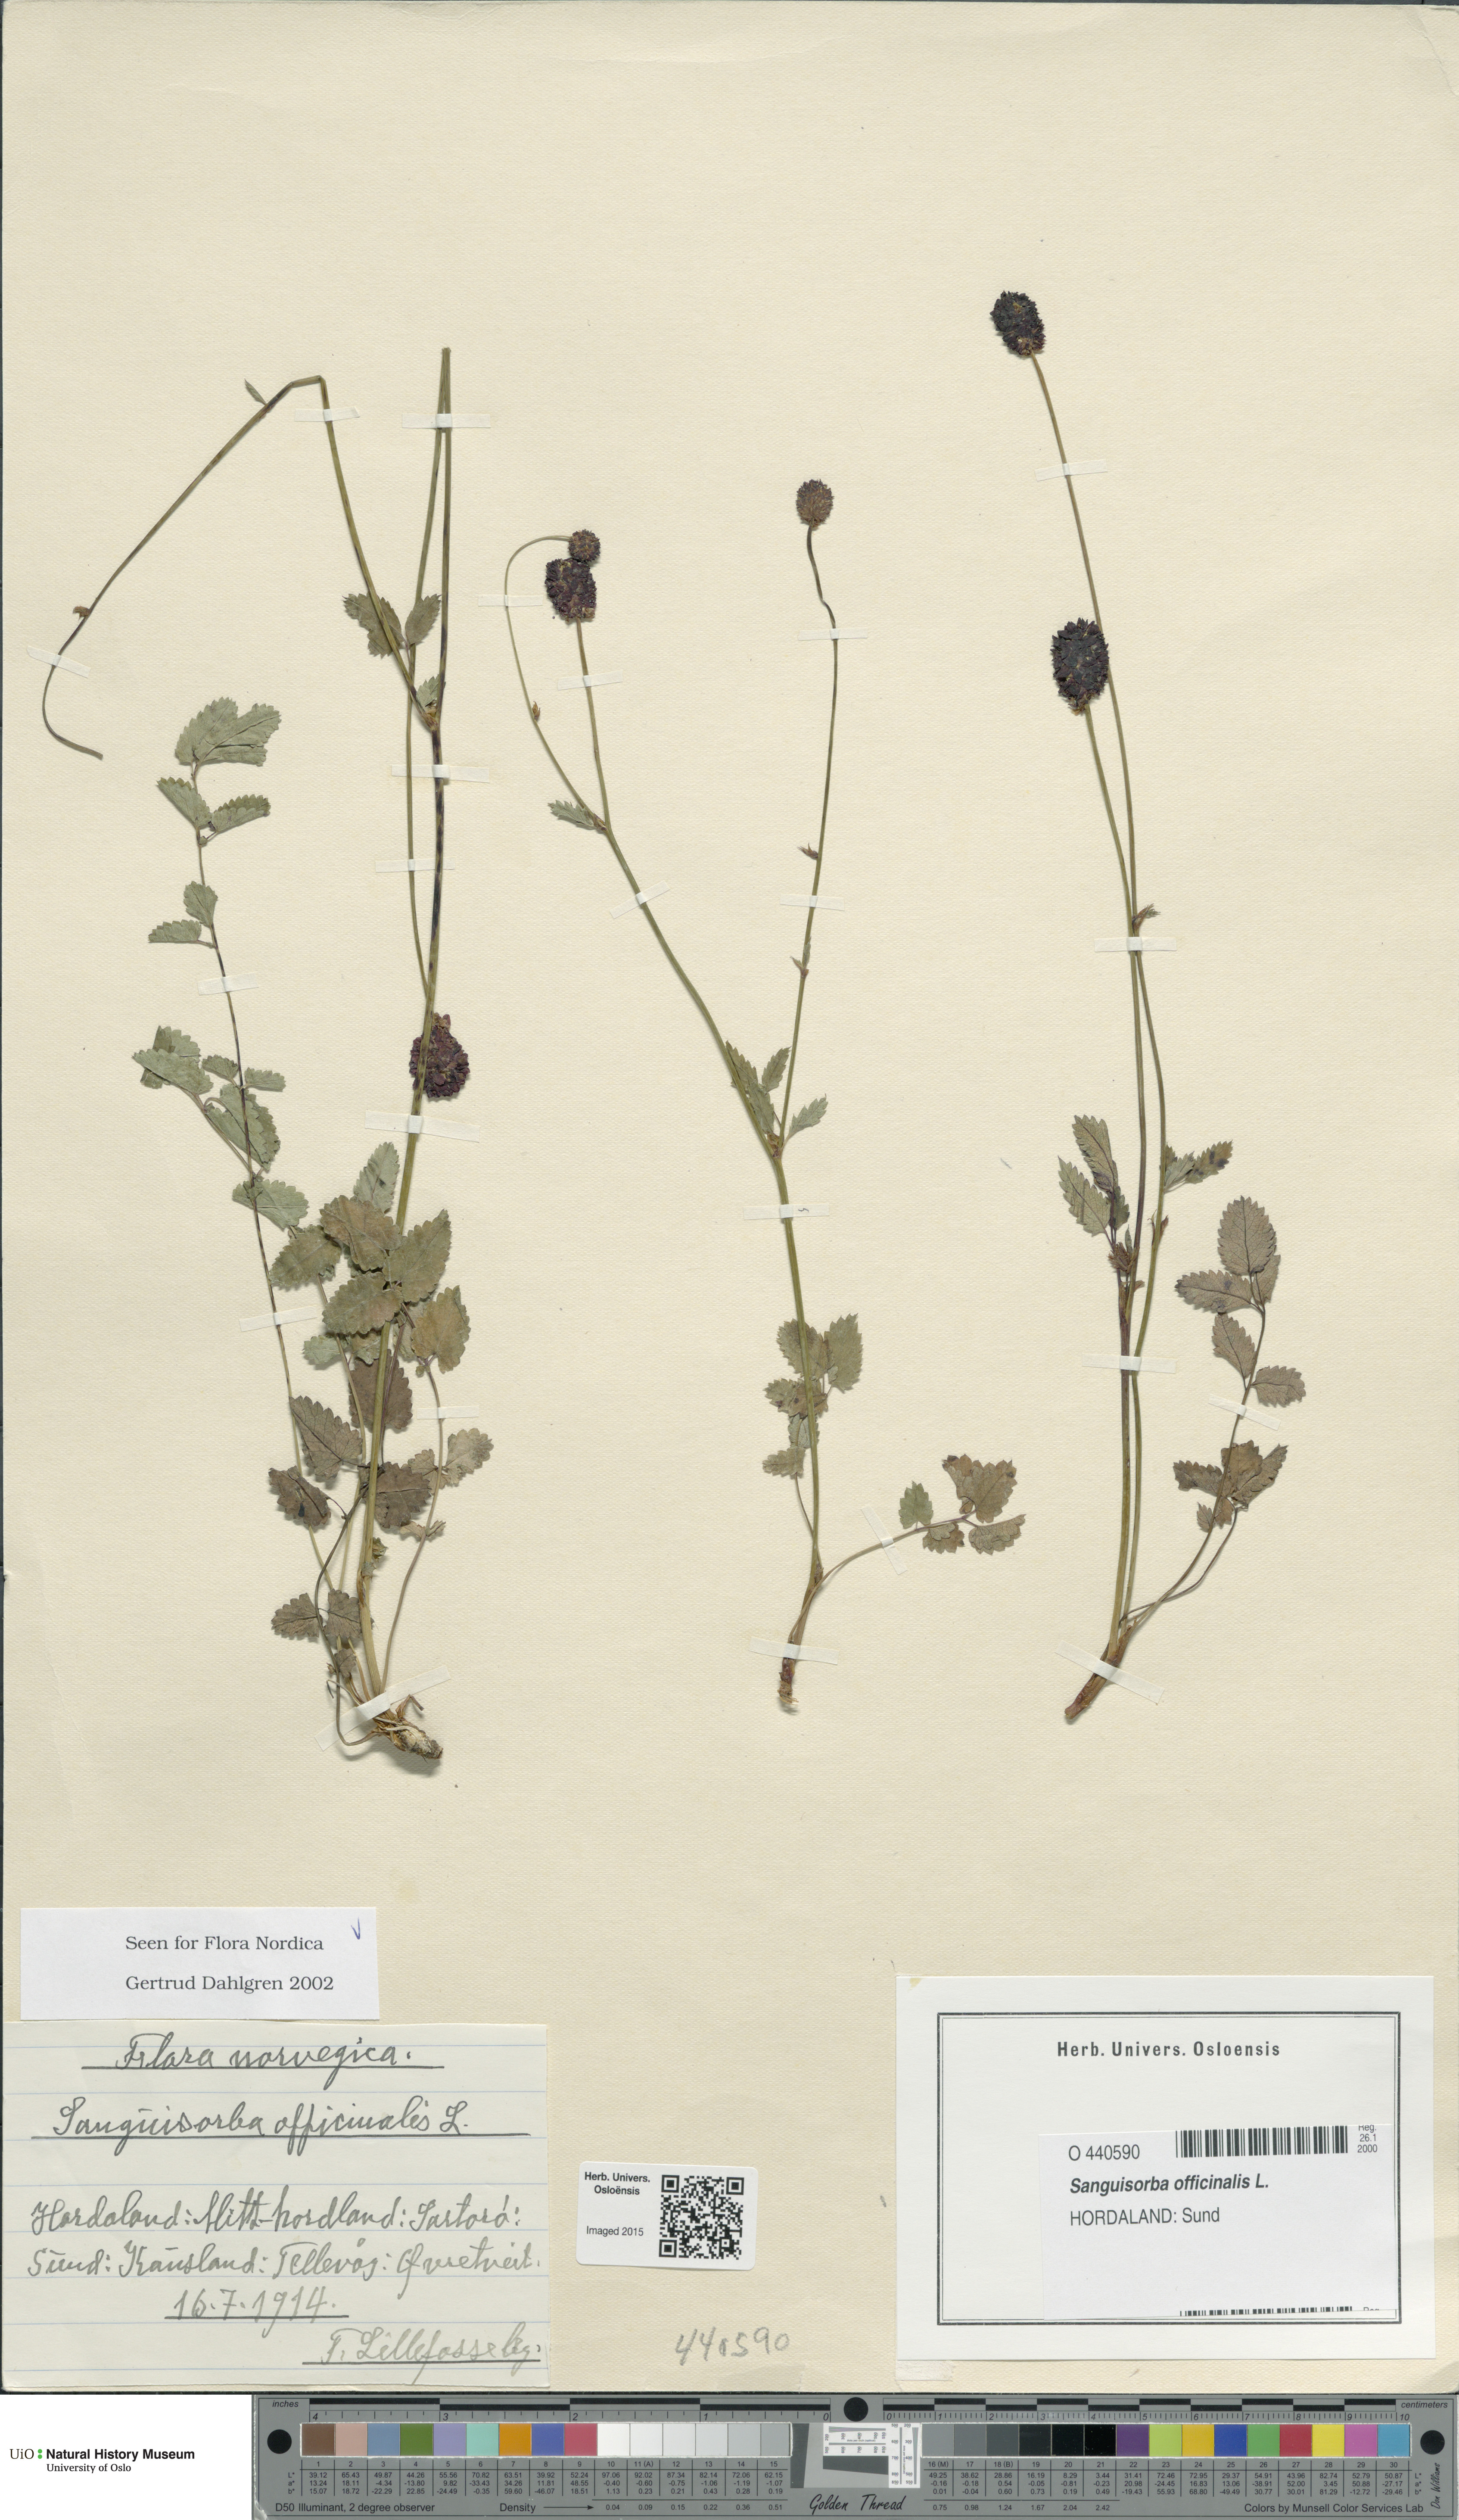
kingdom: Plantae
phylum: Tracheophyta
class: Magnoliopsida
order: Rosales
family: Rosaceae
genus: Sanguisorba
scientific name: Sanguisorba officinalis
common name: Great burnet
